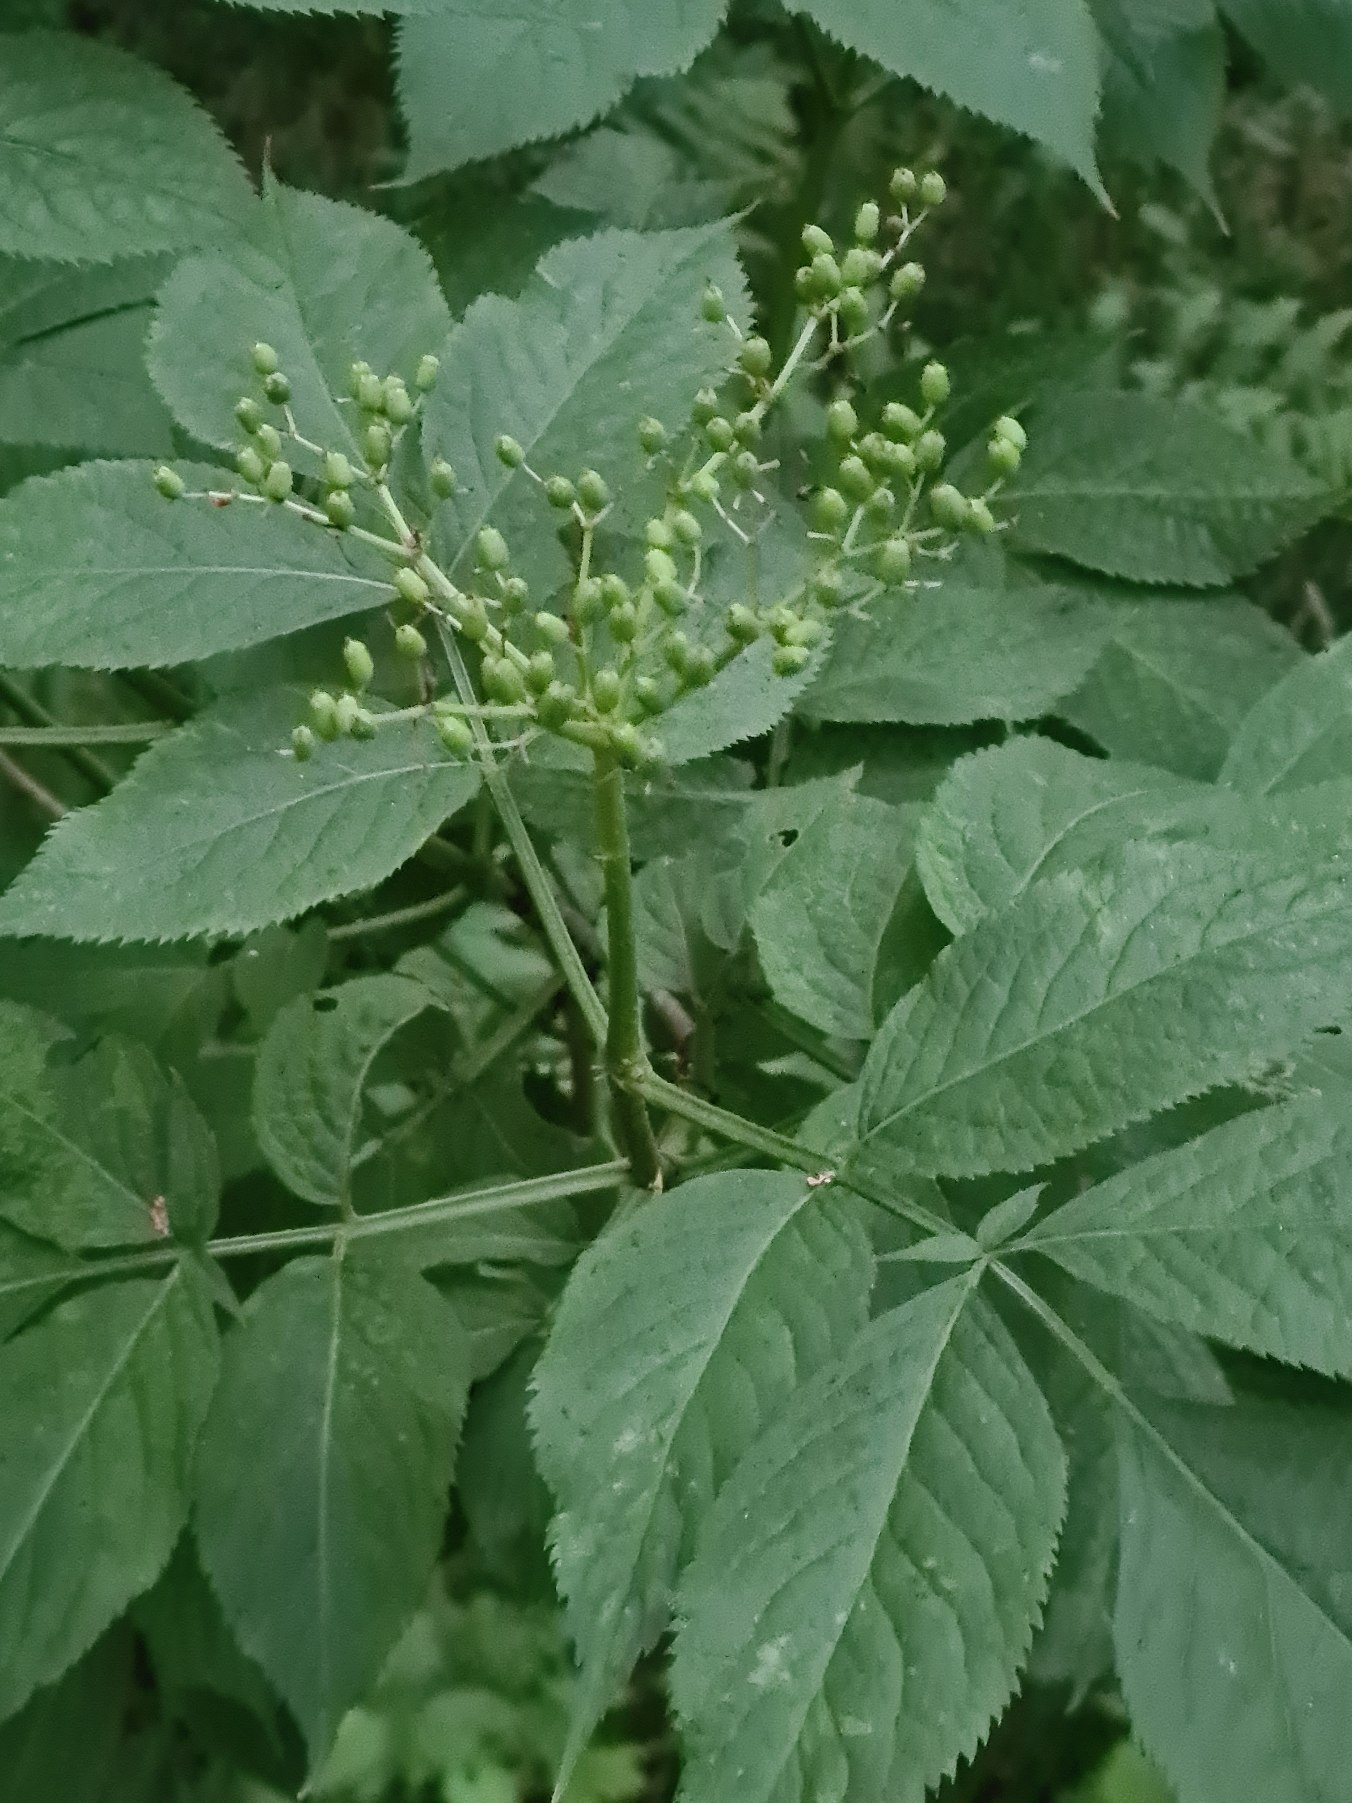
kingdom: Plantae
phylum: Tracheophyta
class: Magnoliopsida
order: Dipsacales
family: Viburnaceae
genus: Sambucus
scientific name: Sambucus nigra
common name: Almindelig hyld
